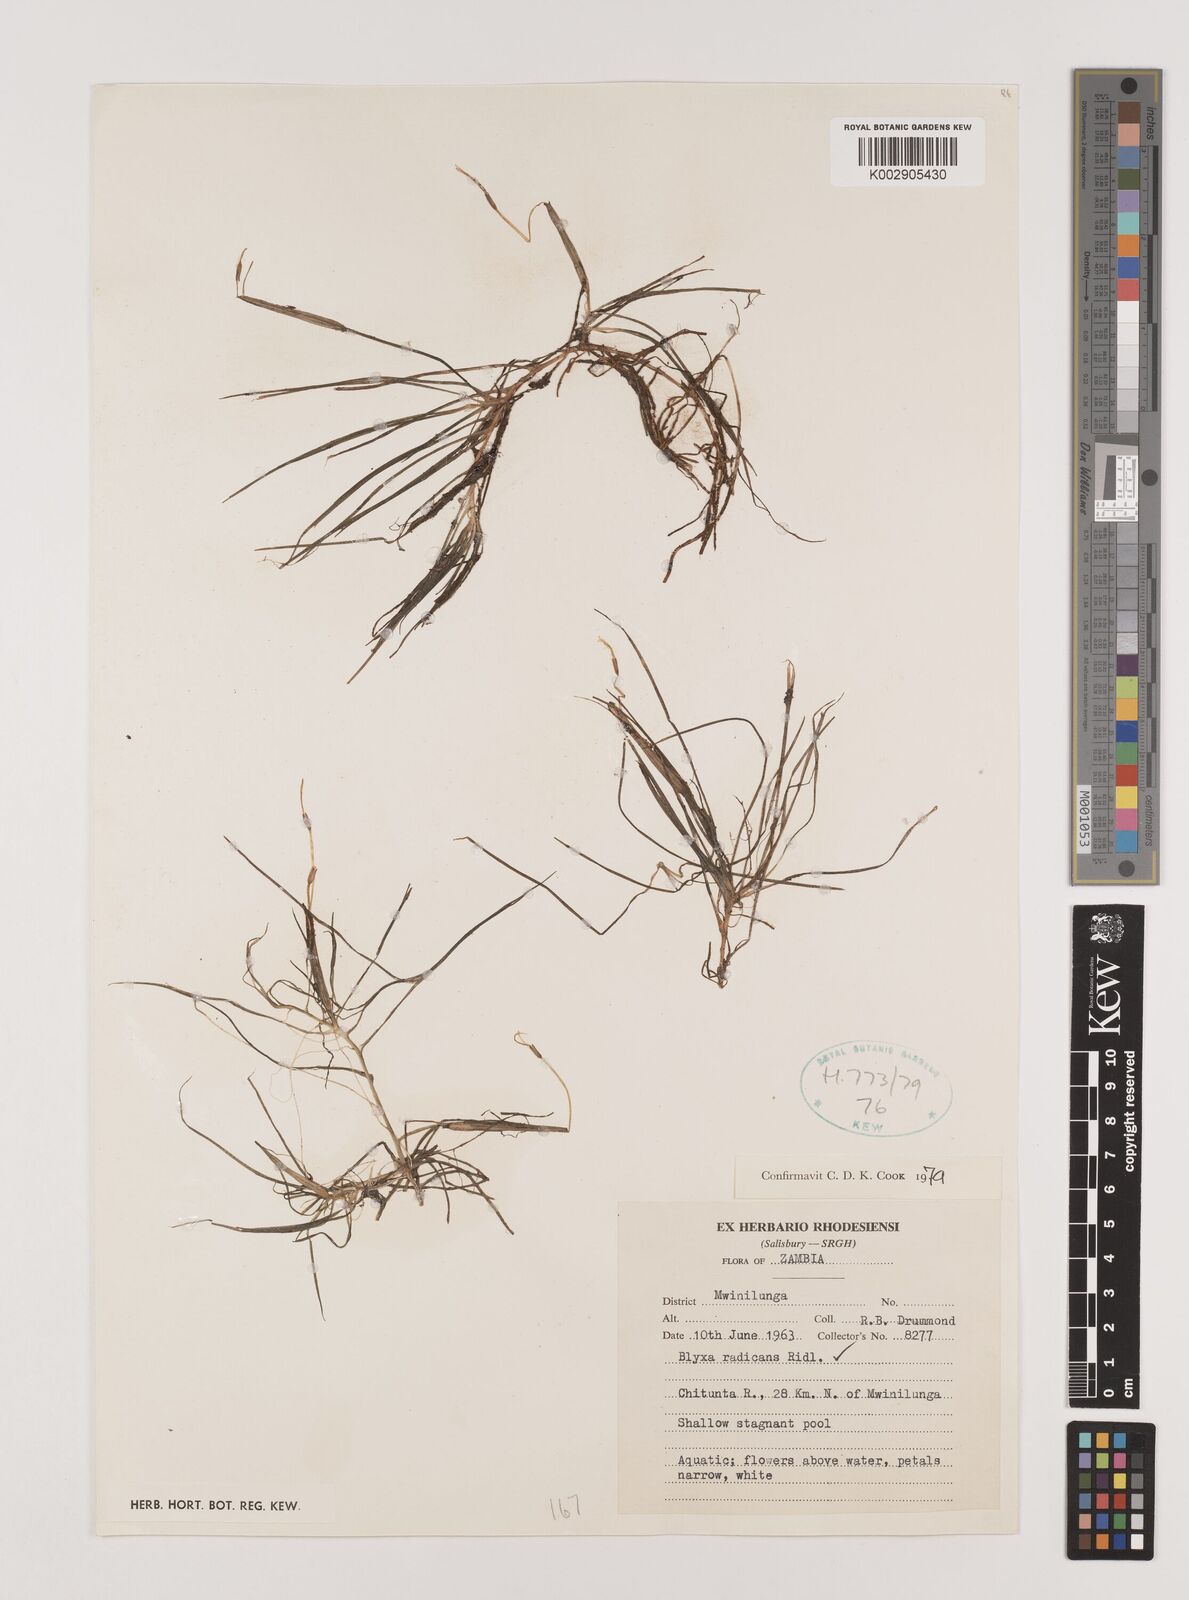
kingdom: Plantae
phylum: Tracheophyta
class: Liliopsida
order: Alismatales
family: Hydrocharitaceae
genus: Blyxa
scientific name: Blyxa radicans
